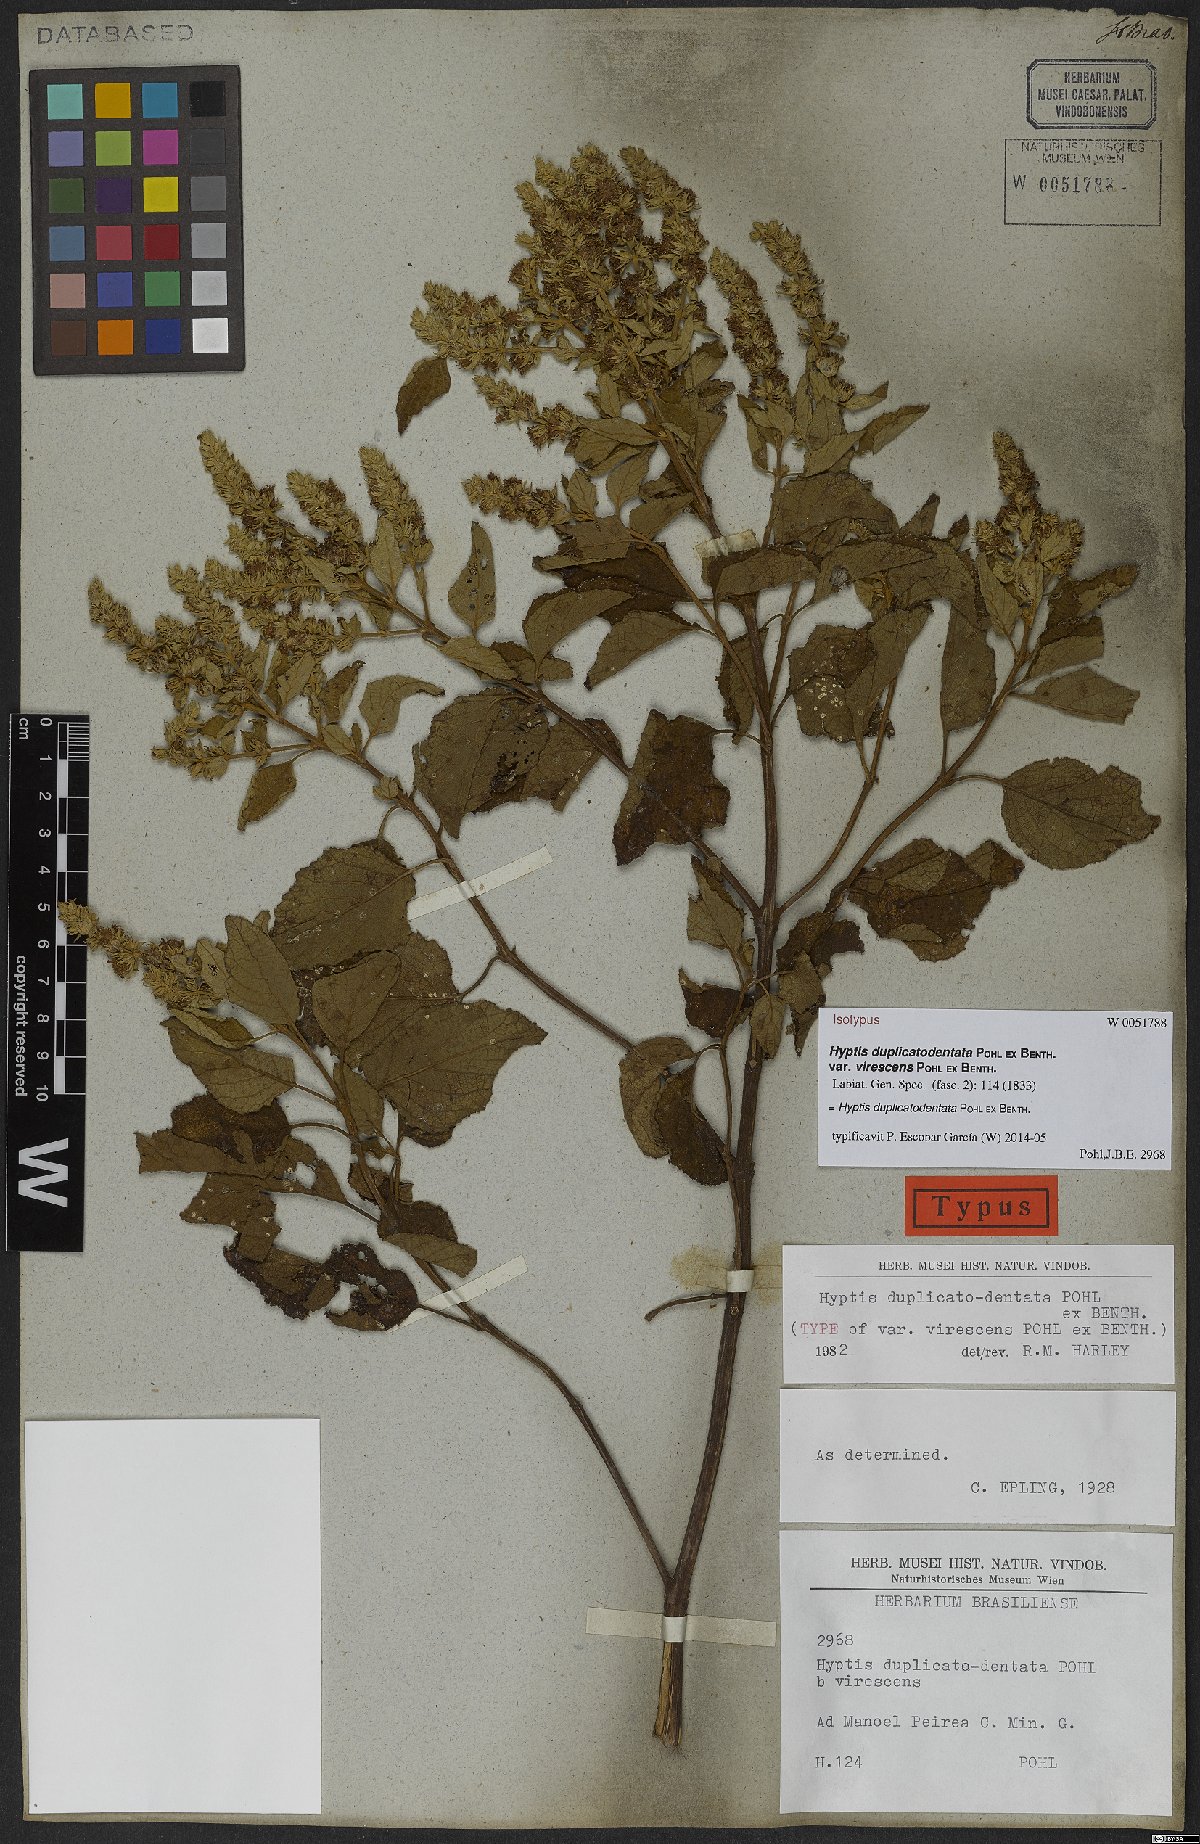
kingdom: Plantae
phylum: Tracheophyta
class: Magnoliopsida
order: Lamiales
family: Lamiaceae
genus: Cantinoa
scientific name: Cantinoa duplicatodentata
